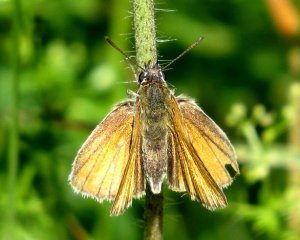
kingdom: Animalia
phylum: Arthropoda
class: Insecta
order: Lepidoptera
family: Hesperiidae
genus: Thymelicus
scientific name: Thymelicus lineola
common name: European Skipper
